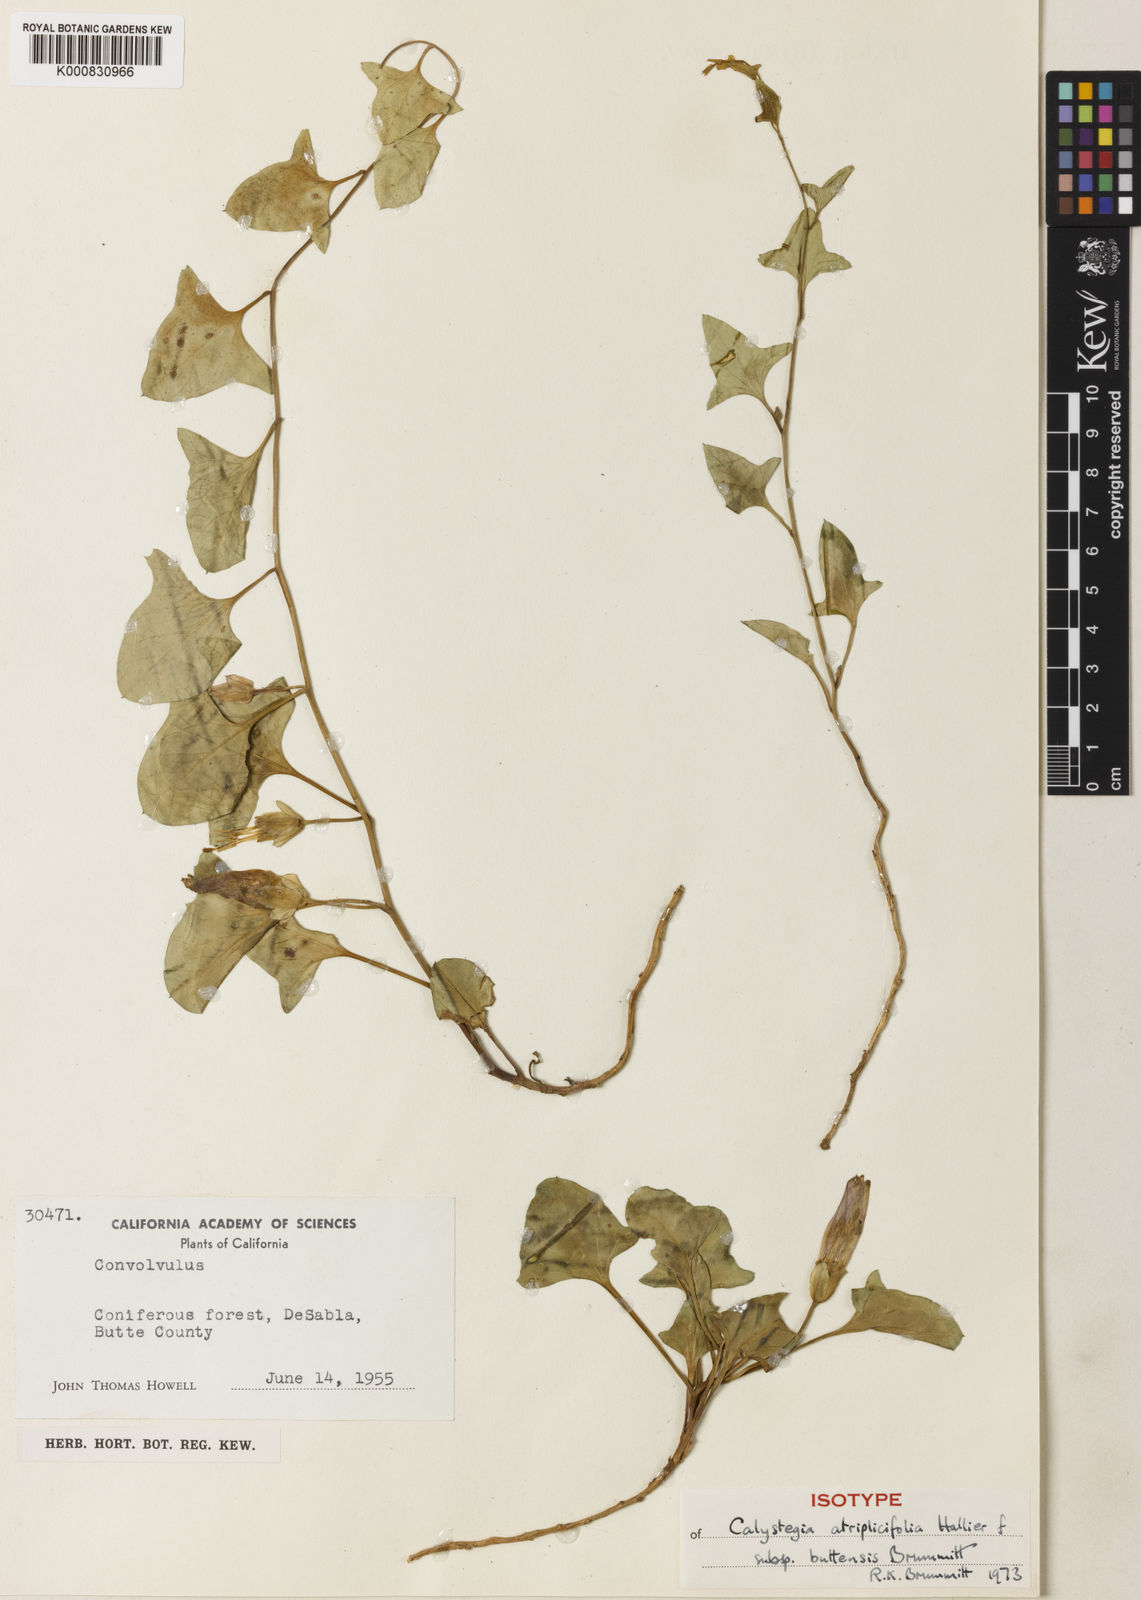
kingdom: Plantae
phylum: Tracheophyta
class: Magnoliopsida
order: Solanales
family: Convolvulaceae
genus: Calystegia
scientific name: Calystegia atriplicifolia
